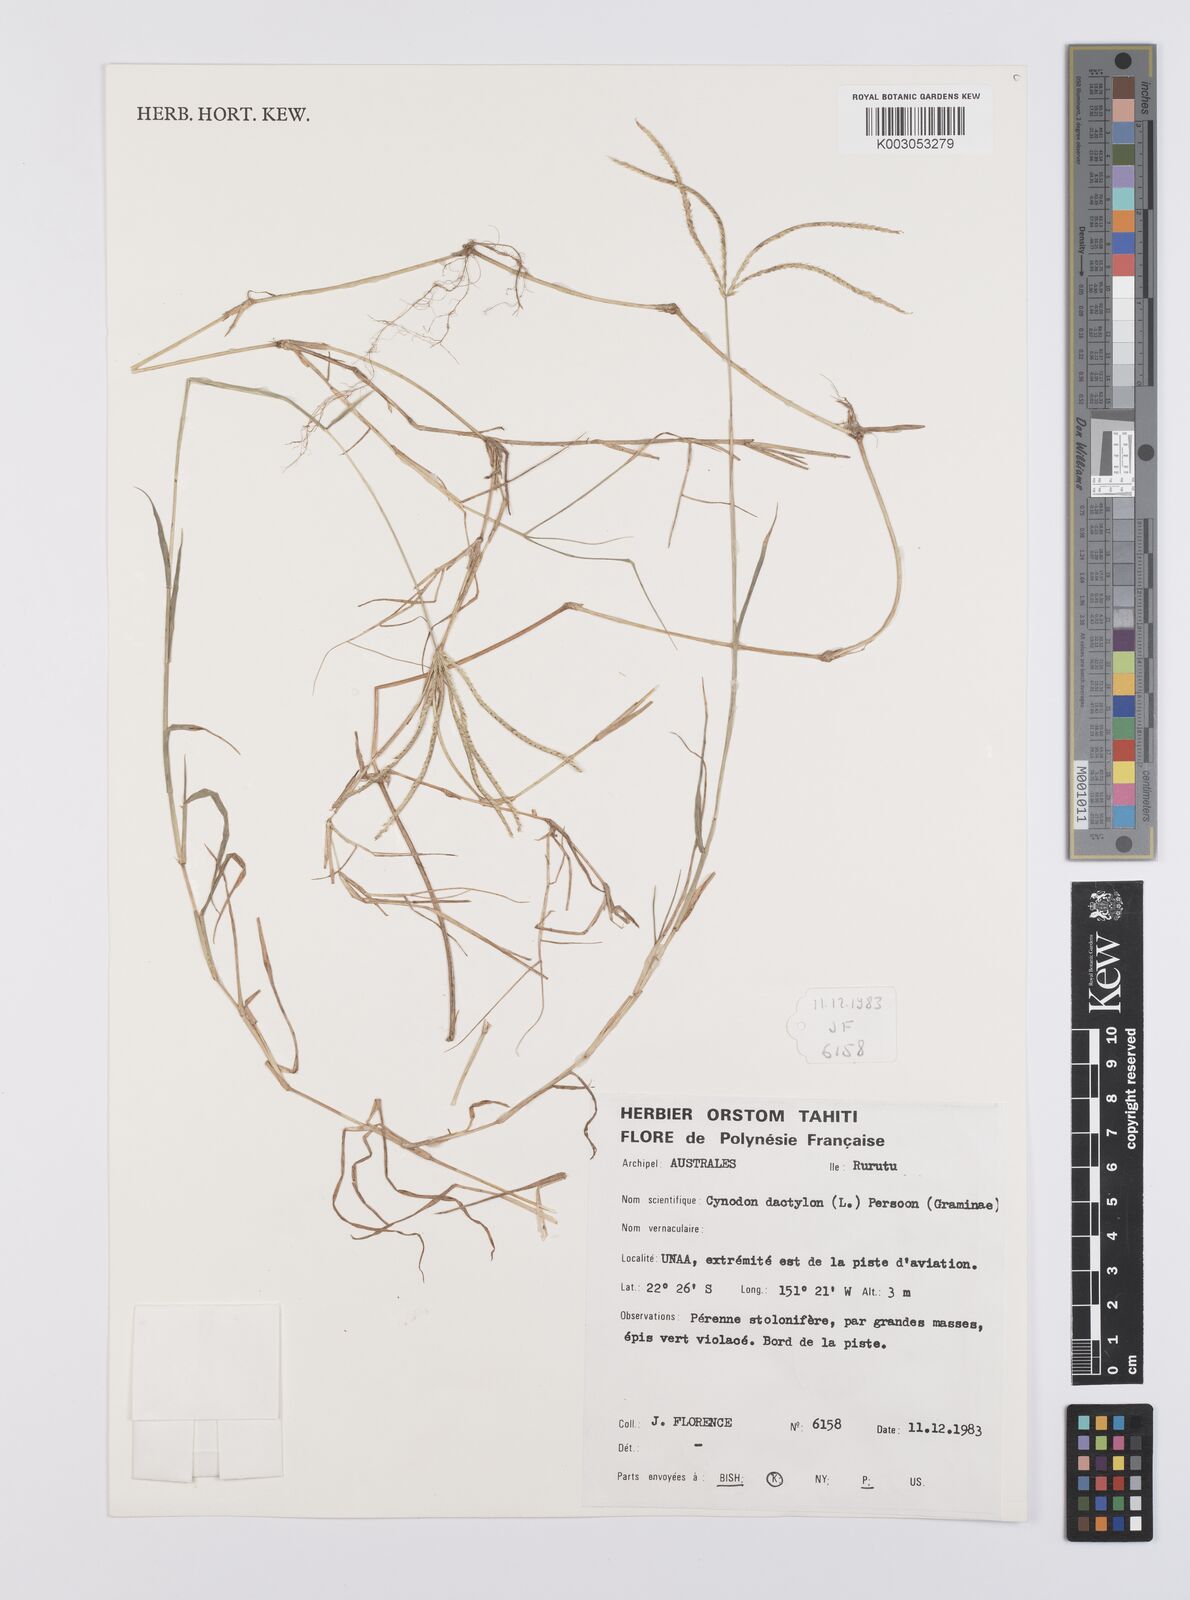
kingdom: Plantae
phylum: Tracheophyta
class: Liliopsida
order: Poales
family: Poaceae
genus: Cynodon
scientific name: Cynodon dactylon
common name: Bermuda grass
